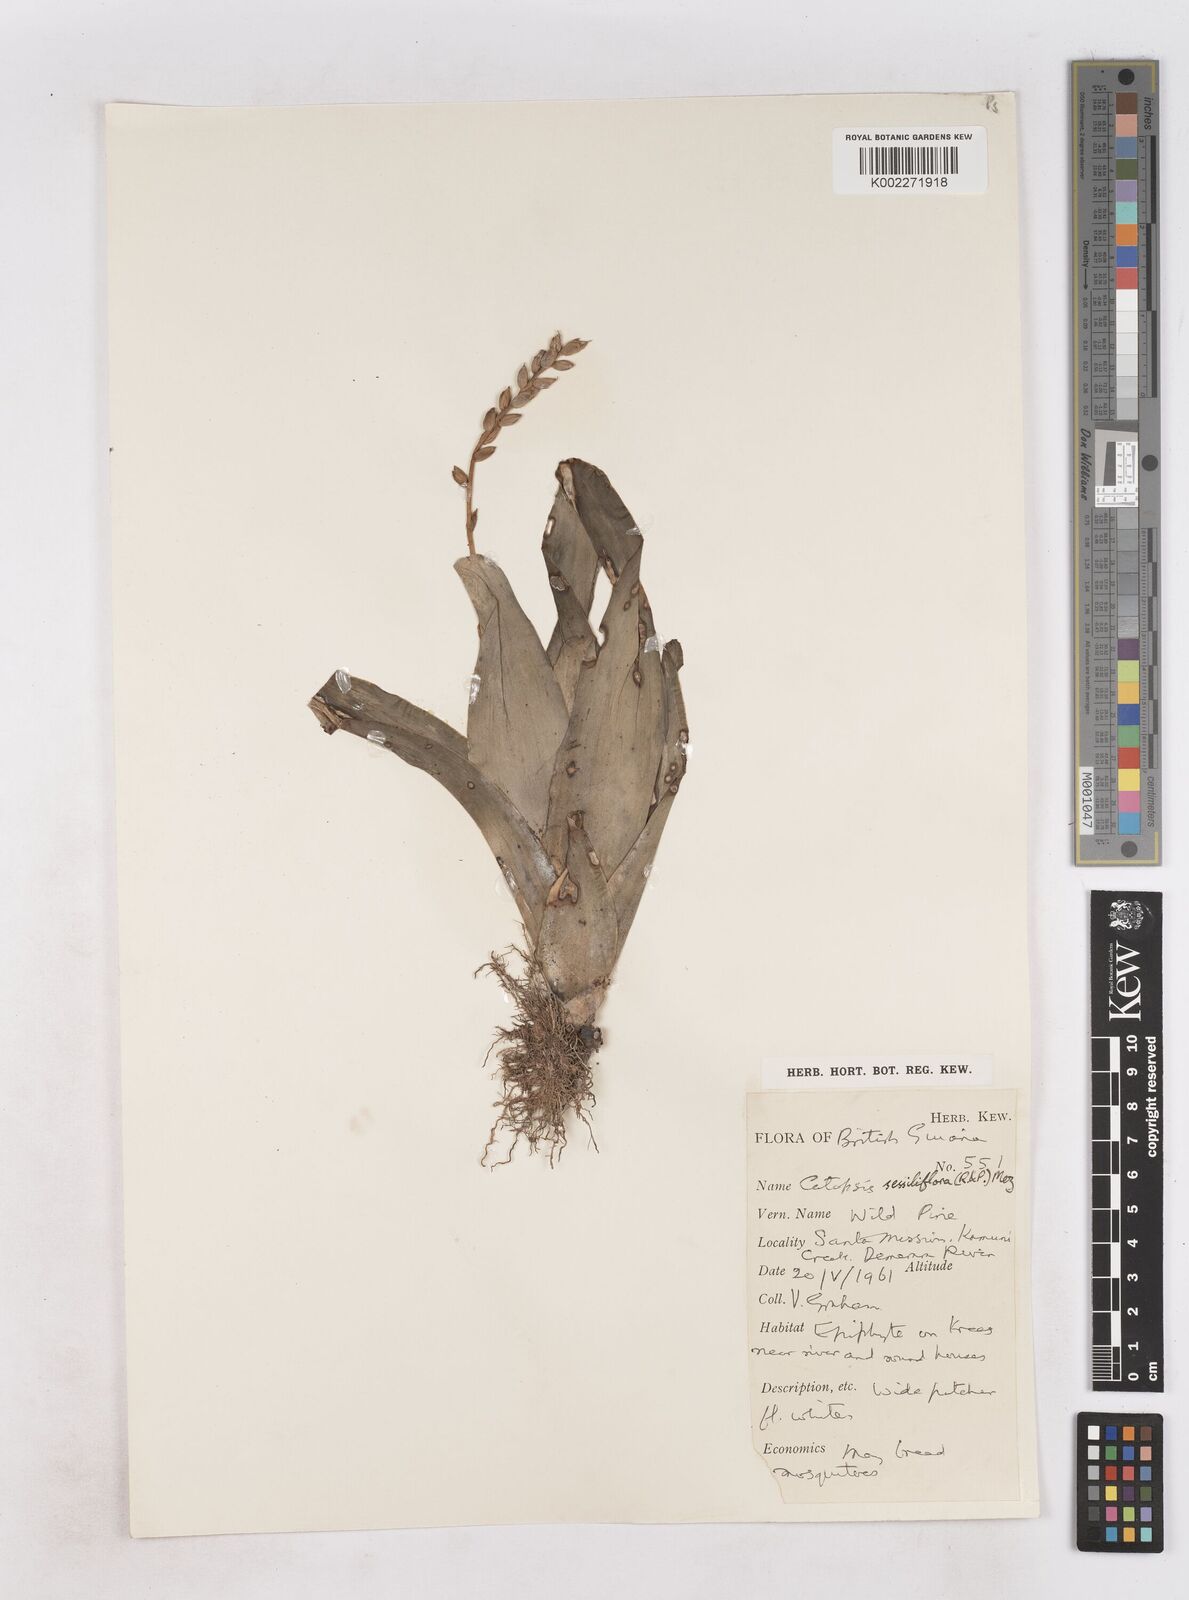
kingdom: Plantae
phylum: Tracheophyta
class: Liliopsida
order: Poales
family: Bromeliaceae
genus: Catopsis
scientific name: Catopsis sessiliflora
